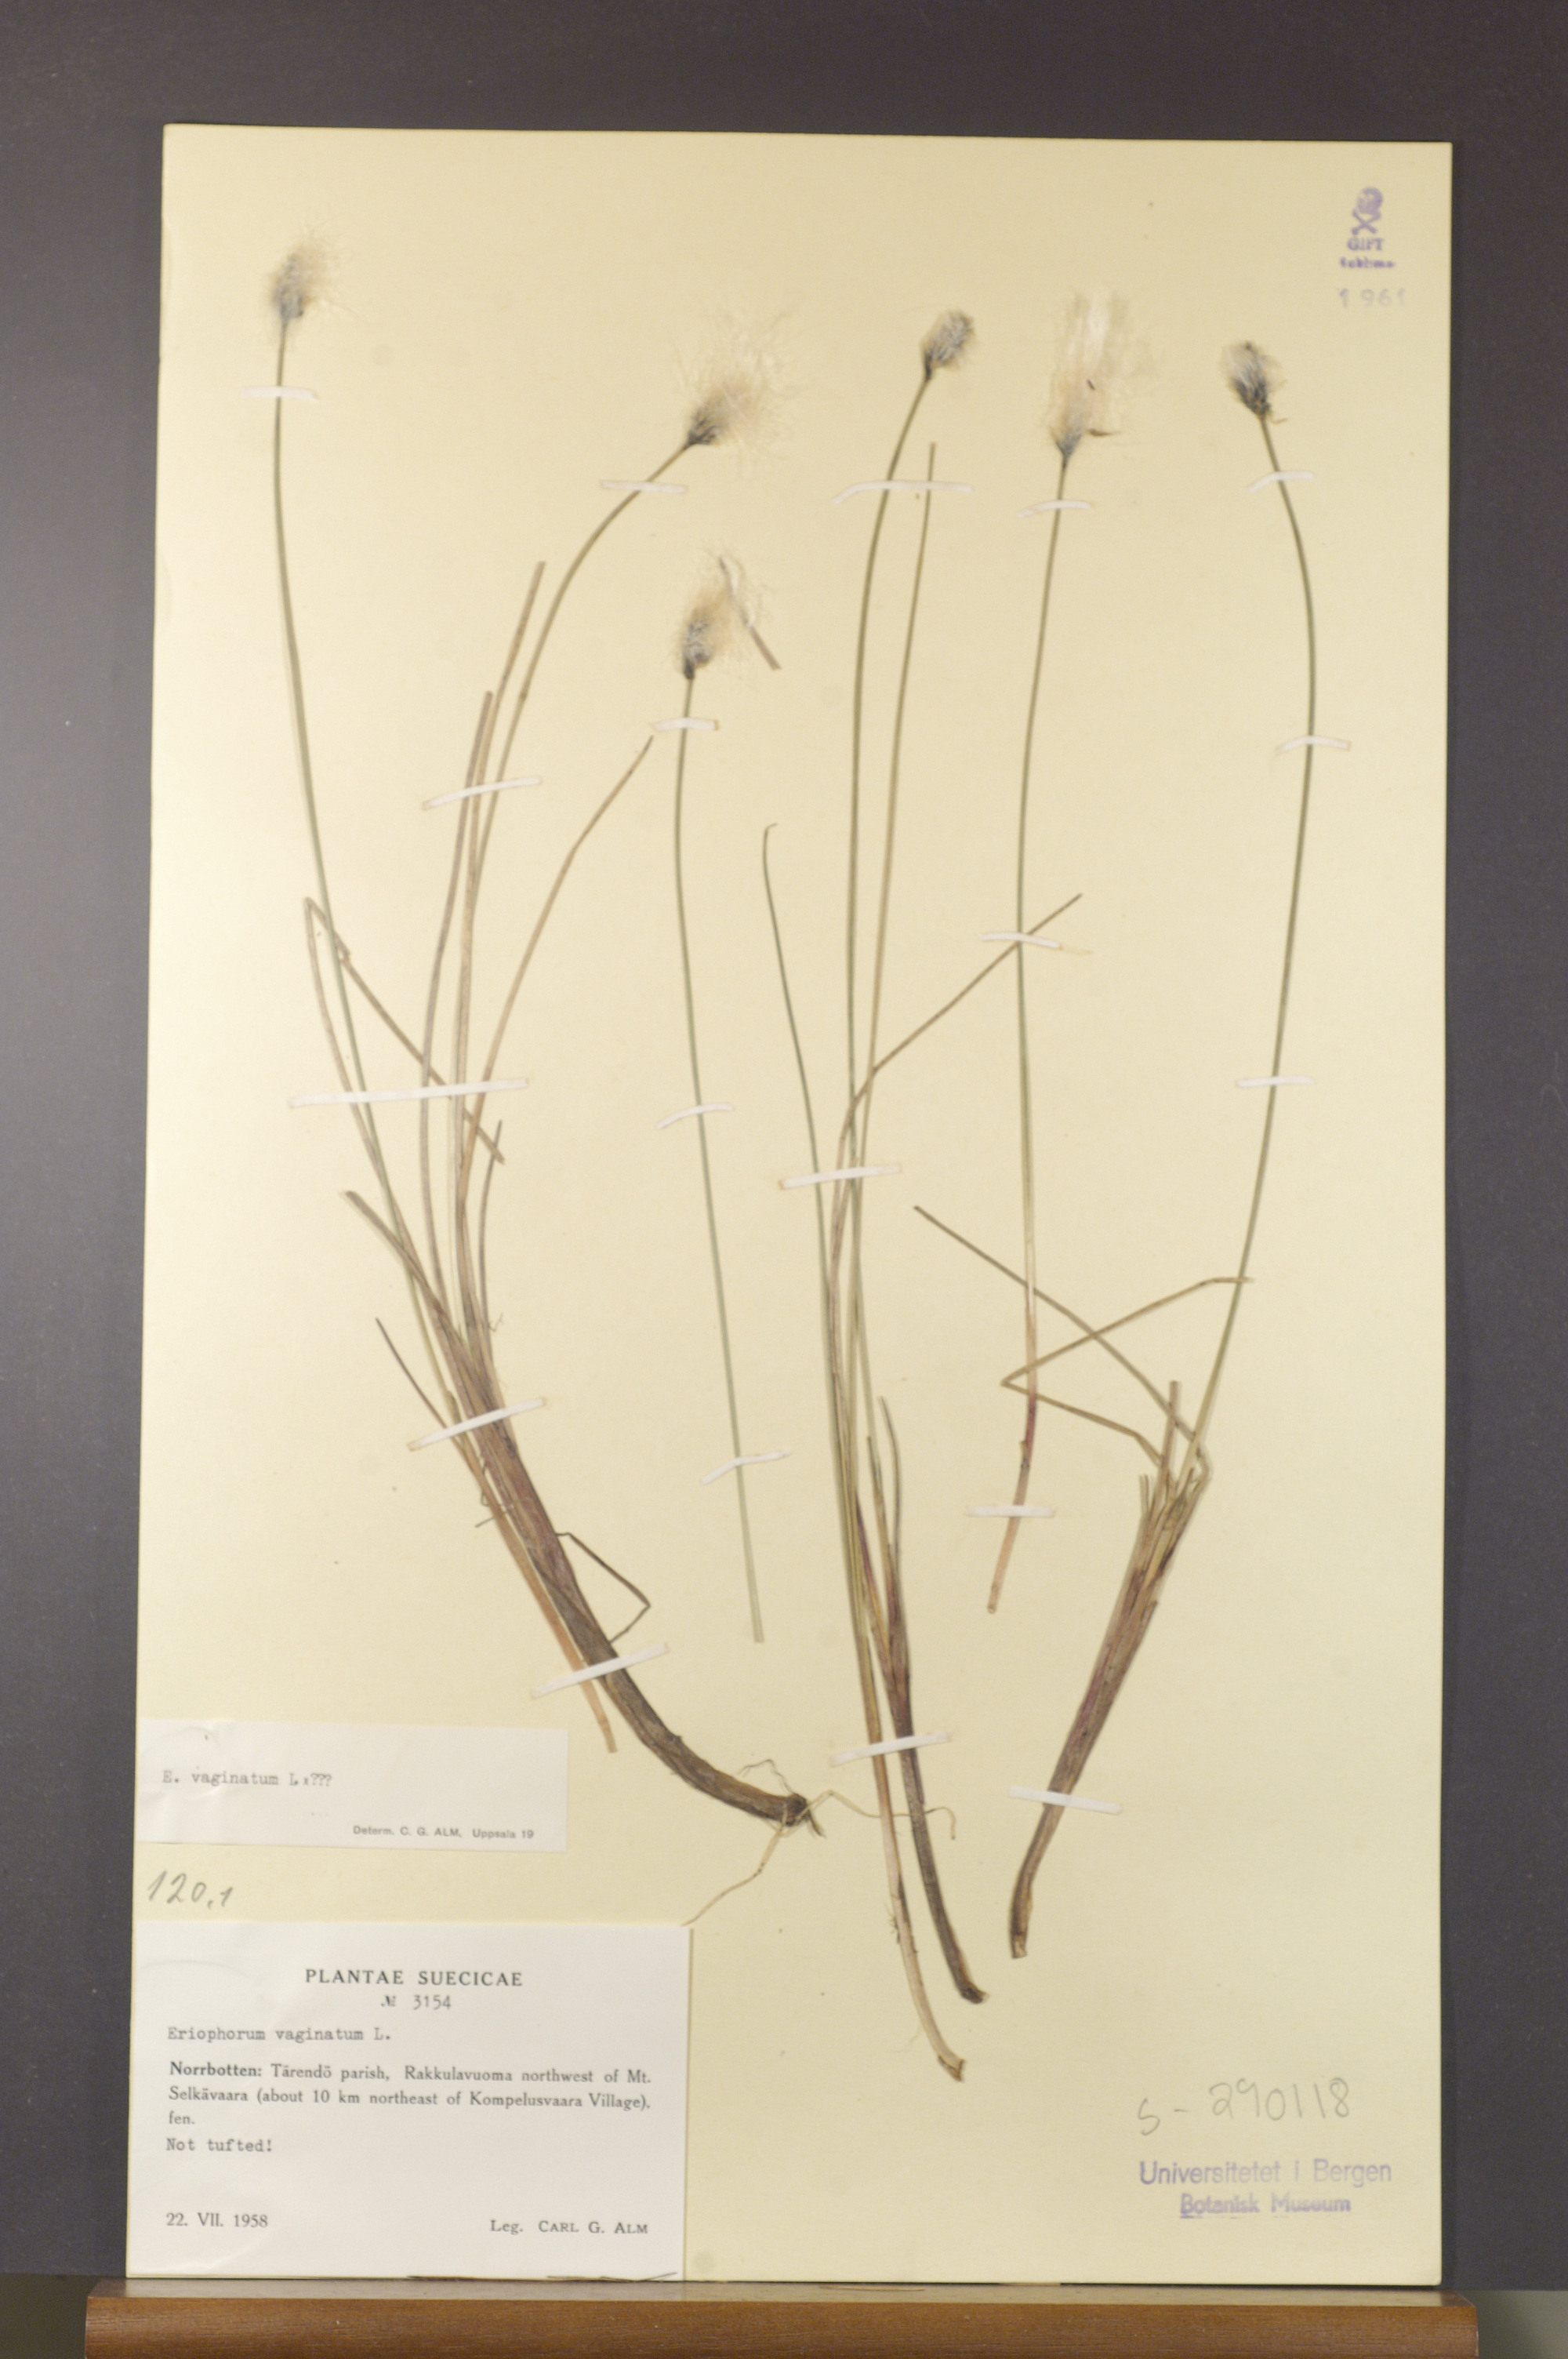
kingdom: Plantae
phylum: Tracheophyta
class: Liliopsida
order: Poales
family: Cyperaceae
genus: Eriophorum
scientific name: Eriophorum vaginatum
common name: Hare's-tail cottongrass
